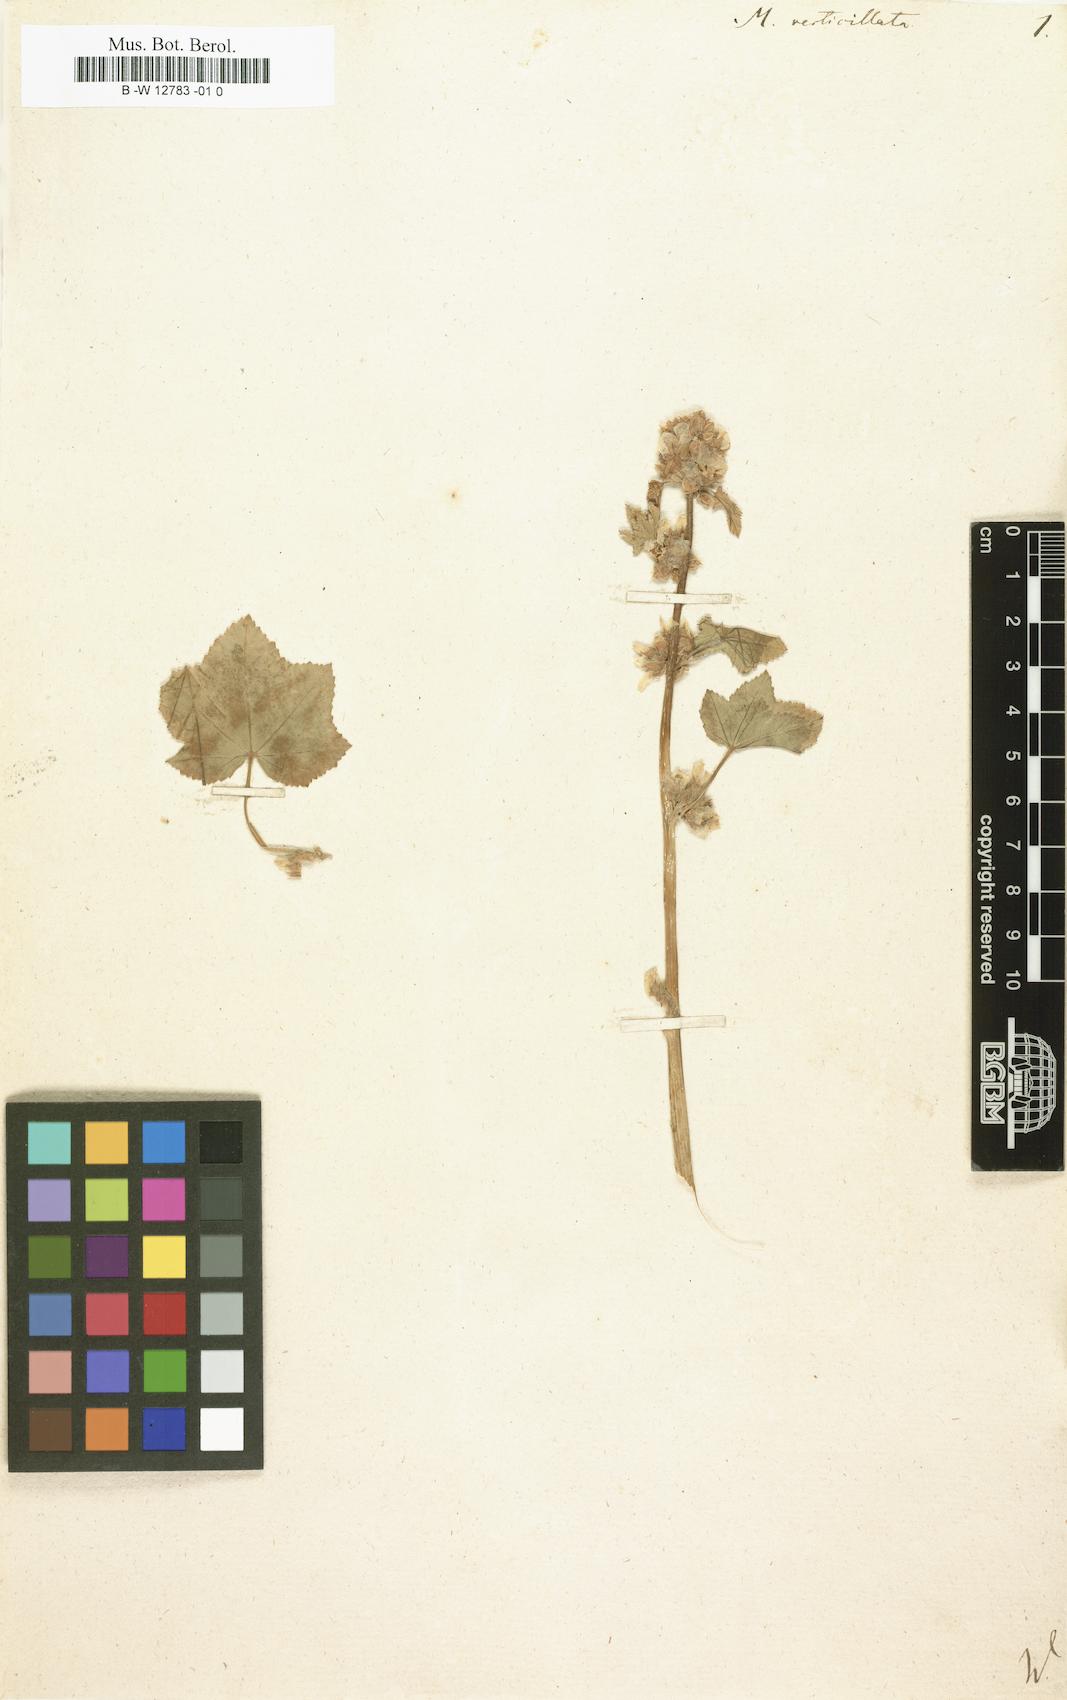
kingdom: Plantae
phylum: Tracheophyta
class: Magnoliopsida
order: Malvales
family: Malvaceae
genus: Malva
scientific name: Malva verticillata
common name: Chinese mallow
